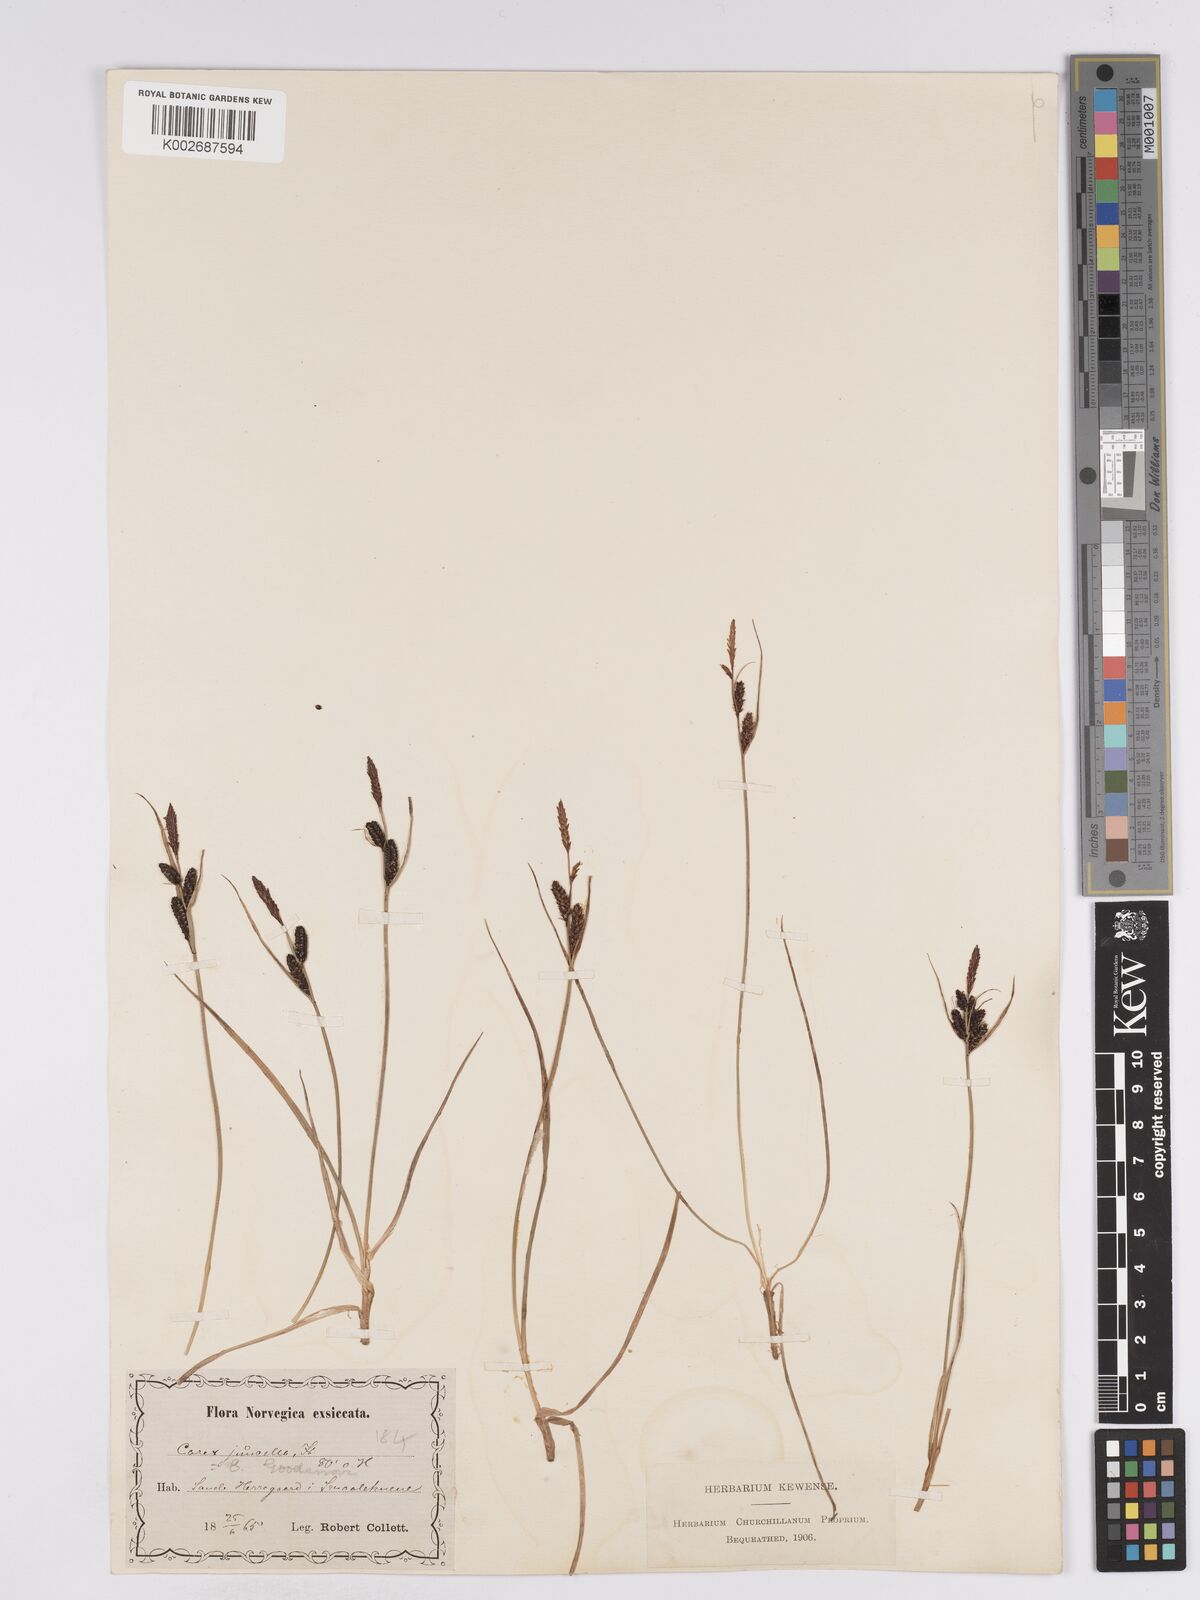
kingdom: Plantae
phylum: Tracheophyta
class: Liliopsida
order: Poales
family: Cyperaceae
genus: Carex
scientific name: Carex
